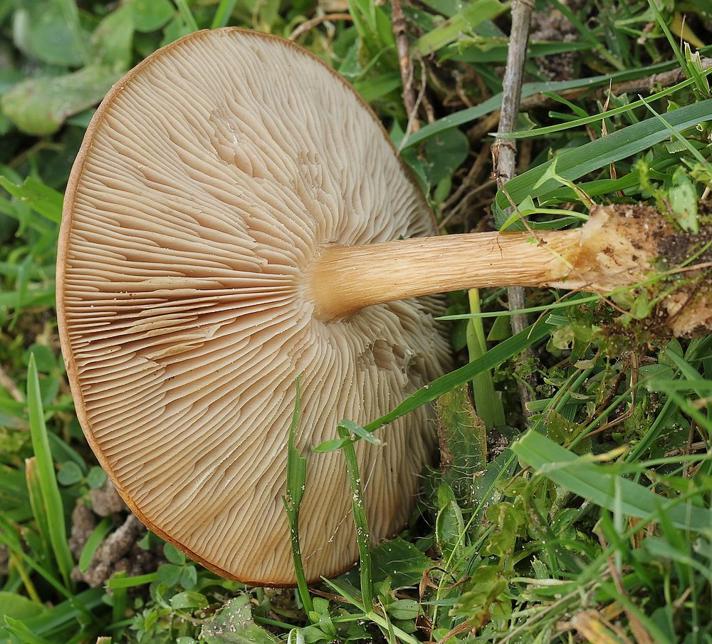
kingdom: Fungi
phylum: Basidiomycota
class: Agaricomycetes
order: Agaricales
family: Tricholomataceae
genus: Melanoleuca
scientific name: Melanoleuca grammopodia
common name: stribestokket munkehat
